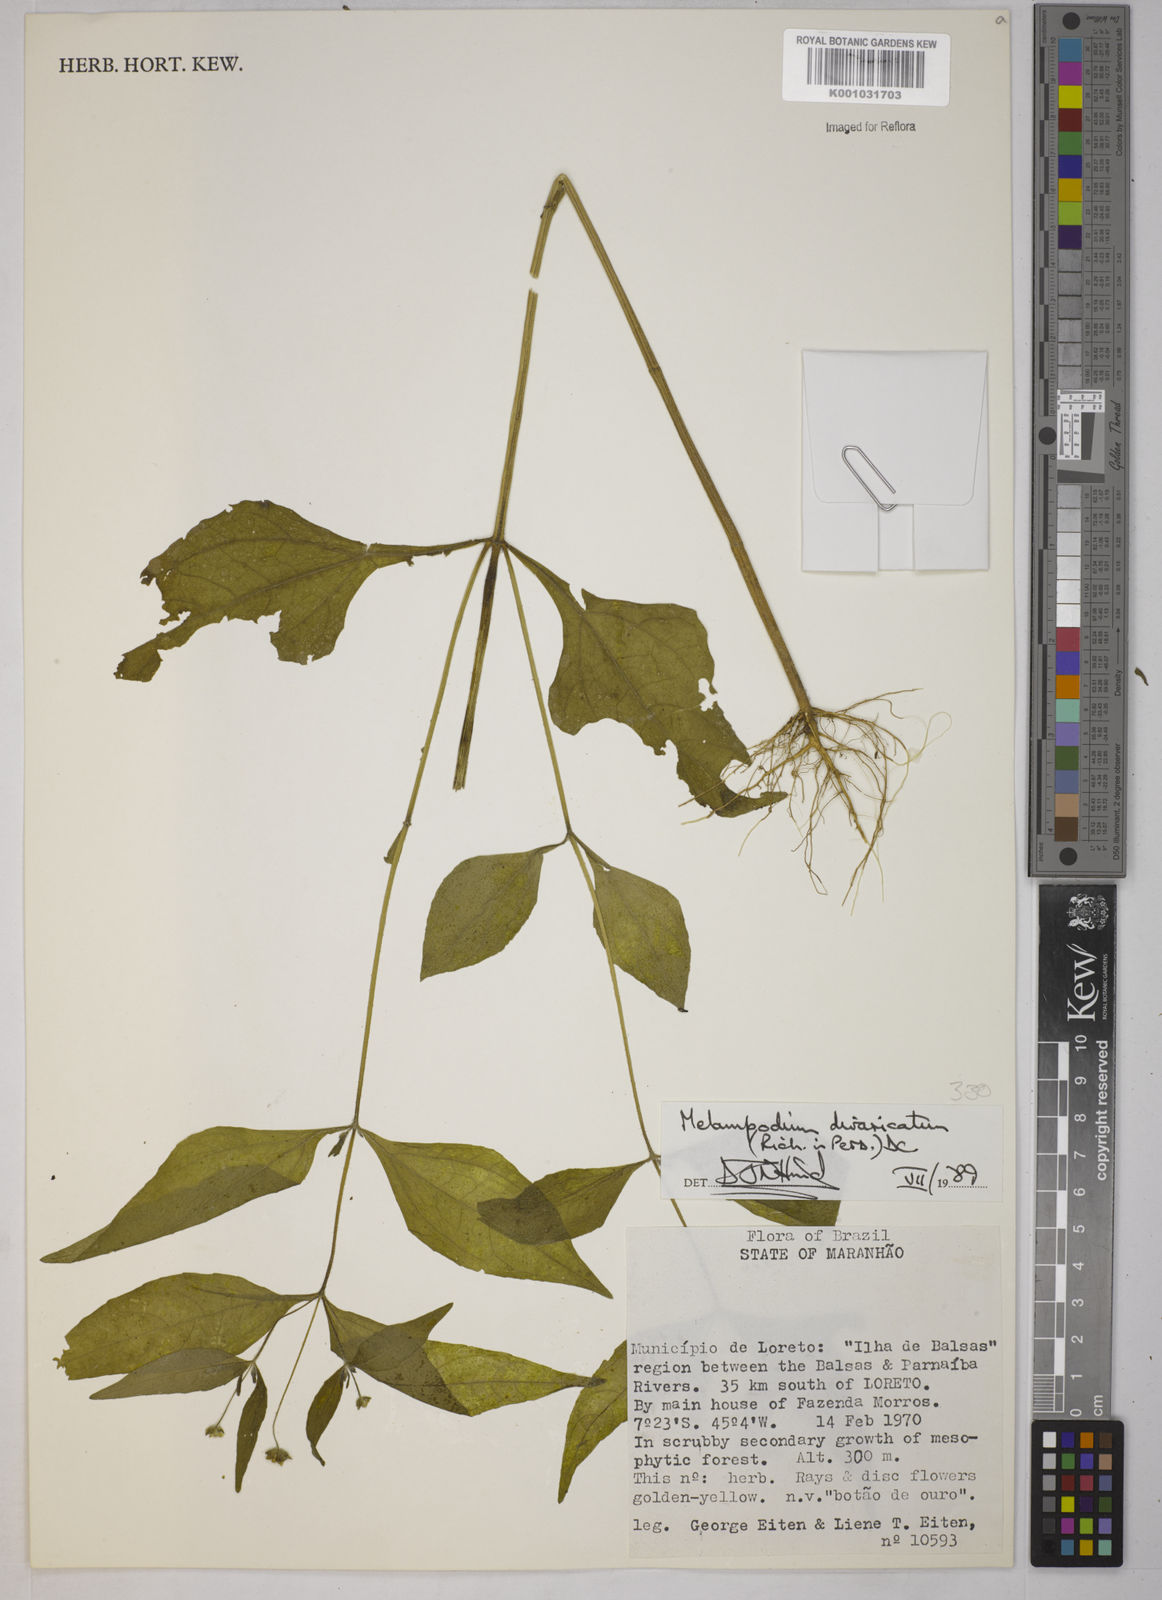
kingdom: Plantae
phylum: Tracheophyta
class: Magnoliopsida
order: Asterales
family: Asteraceae
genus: Melampodium
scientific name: Melampodium divaricatum
